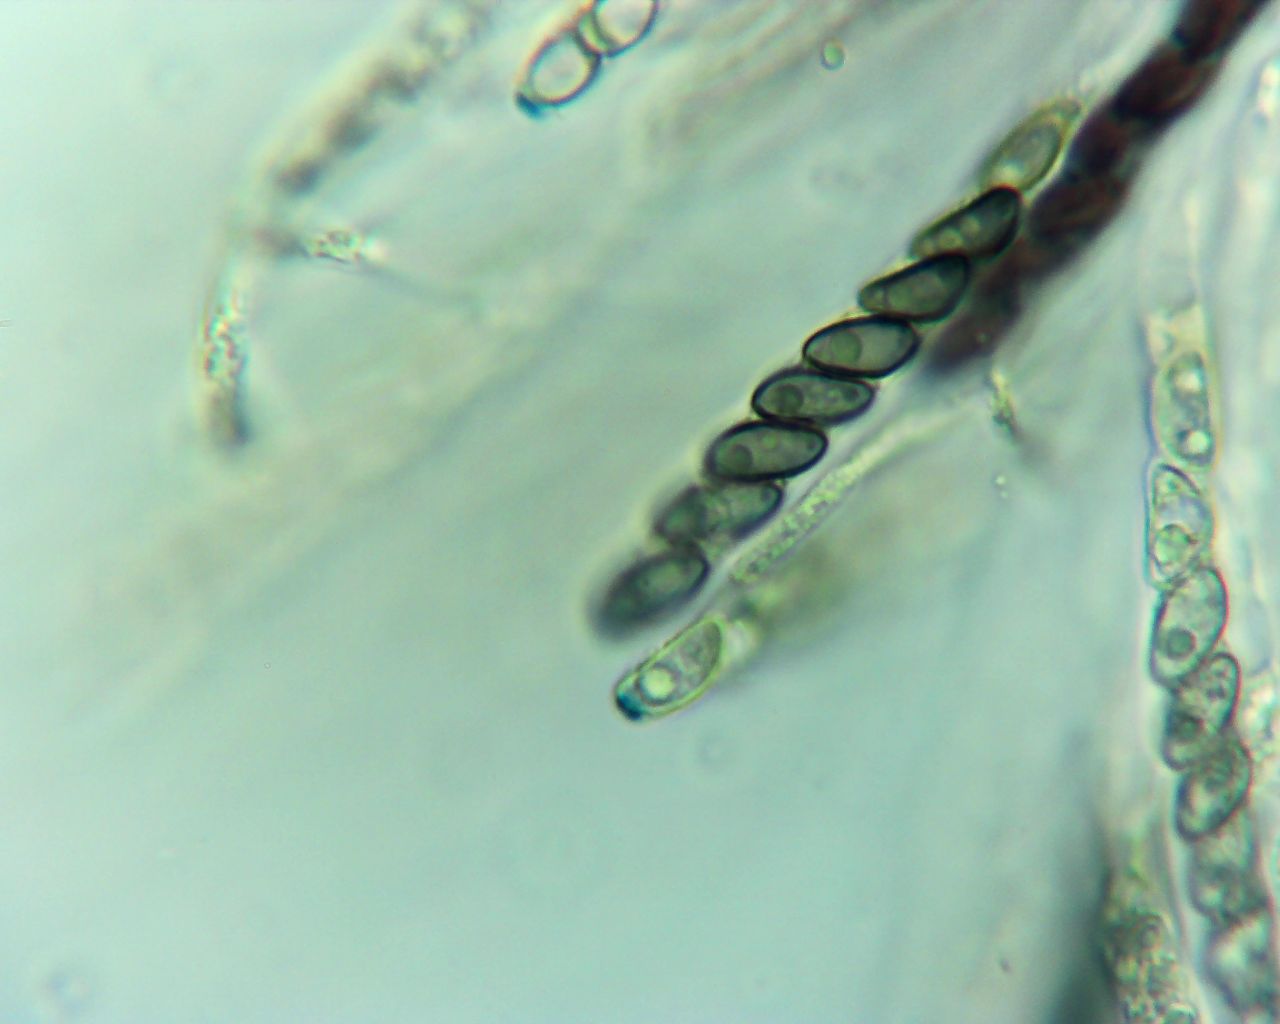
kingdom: Fungi
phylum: Ascomycota
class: Sordariomycetes
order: Xylariales
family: Hypoxylaceae
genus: Hypoxylon
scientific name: Hypoxylon howeanum
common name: halvkugleformet kulbær
